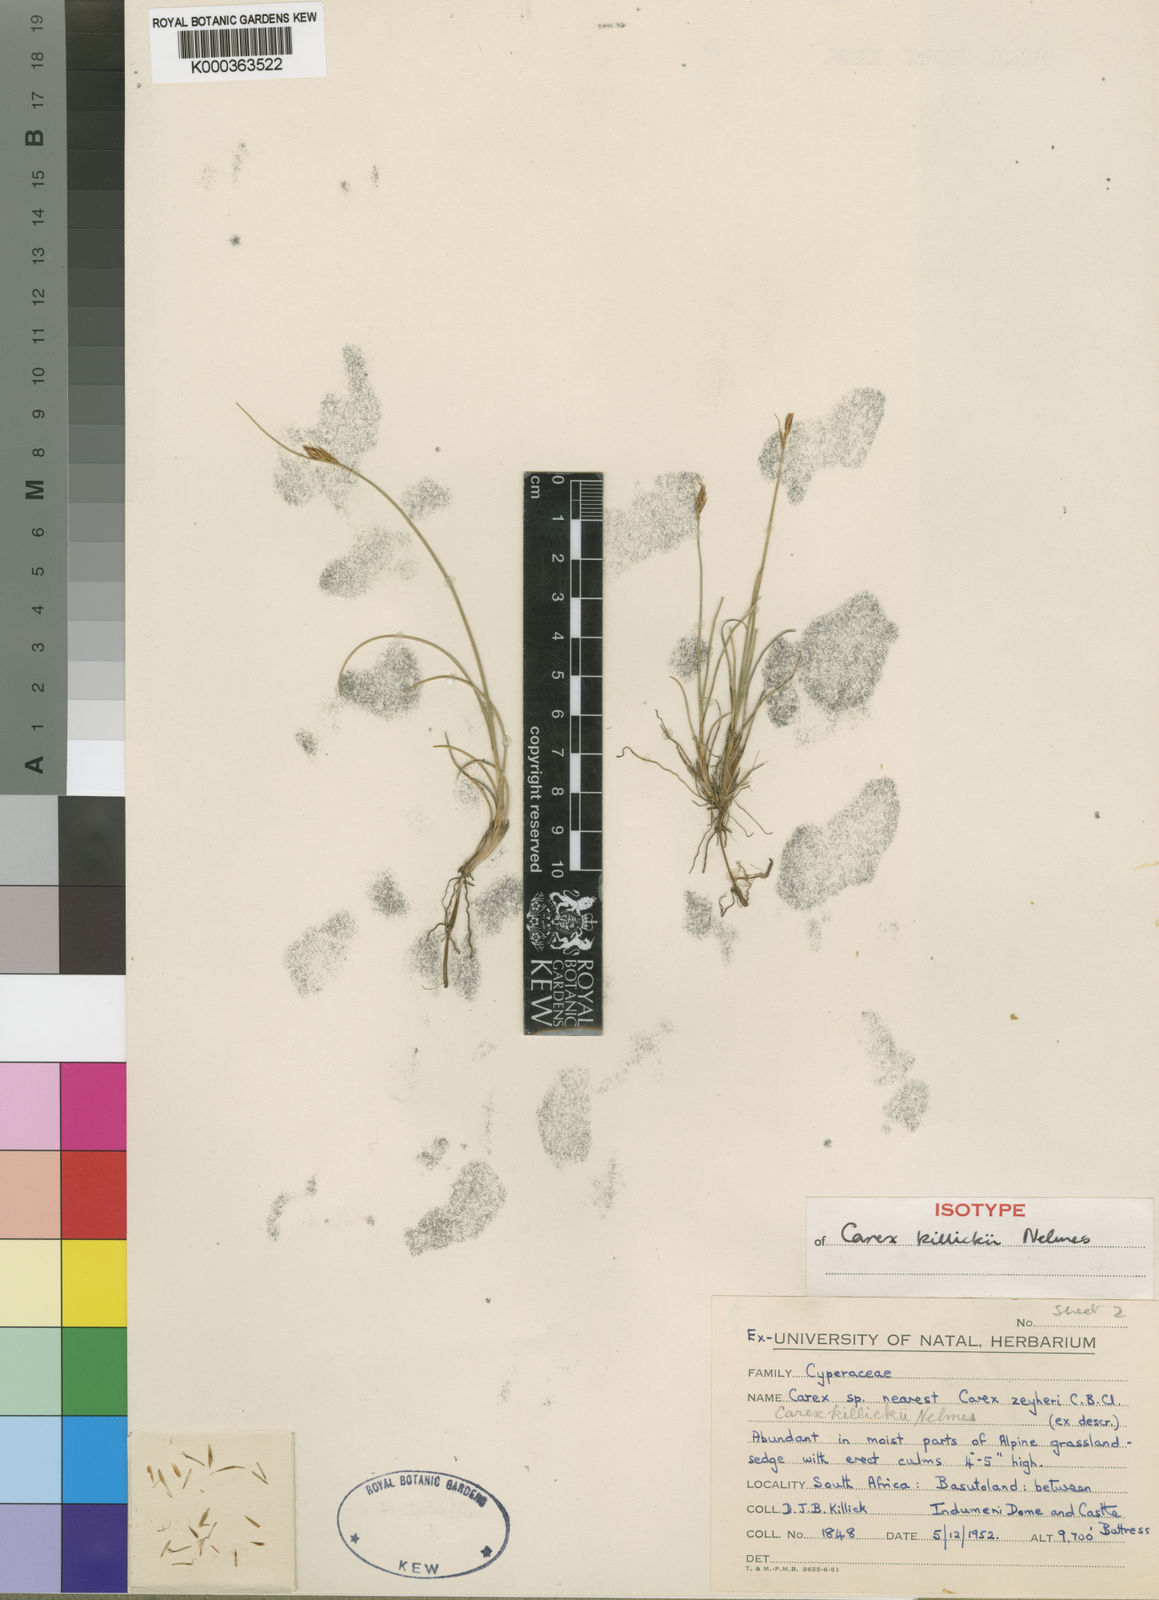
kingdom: Plantae
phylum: Tracheophyta
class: Liliopsida
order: Poales
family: Cyperaceae
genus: Carex
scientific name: Carex
